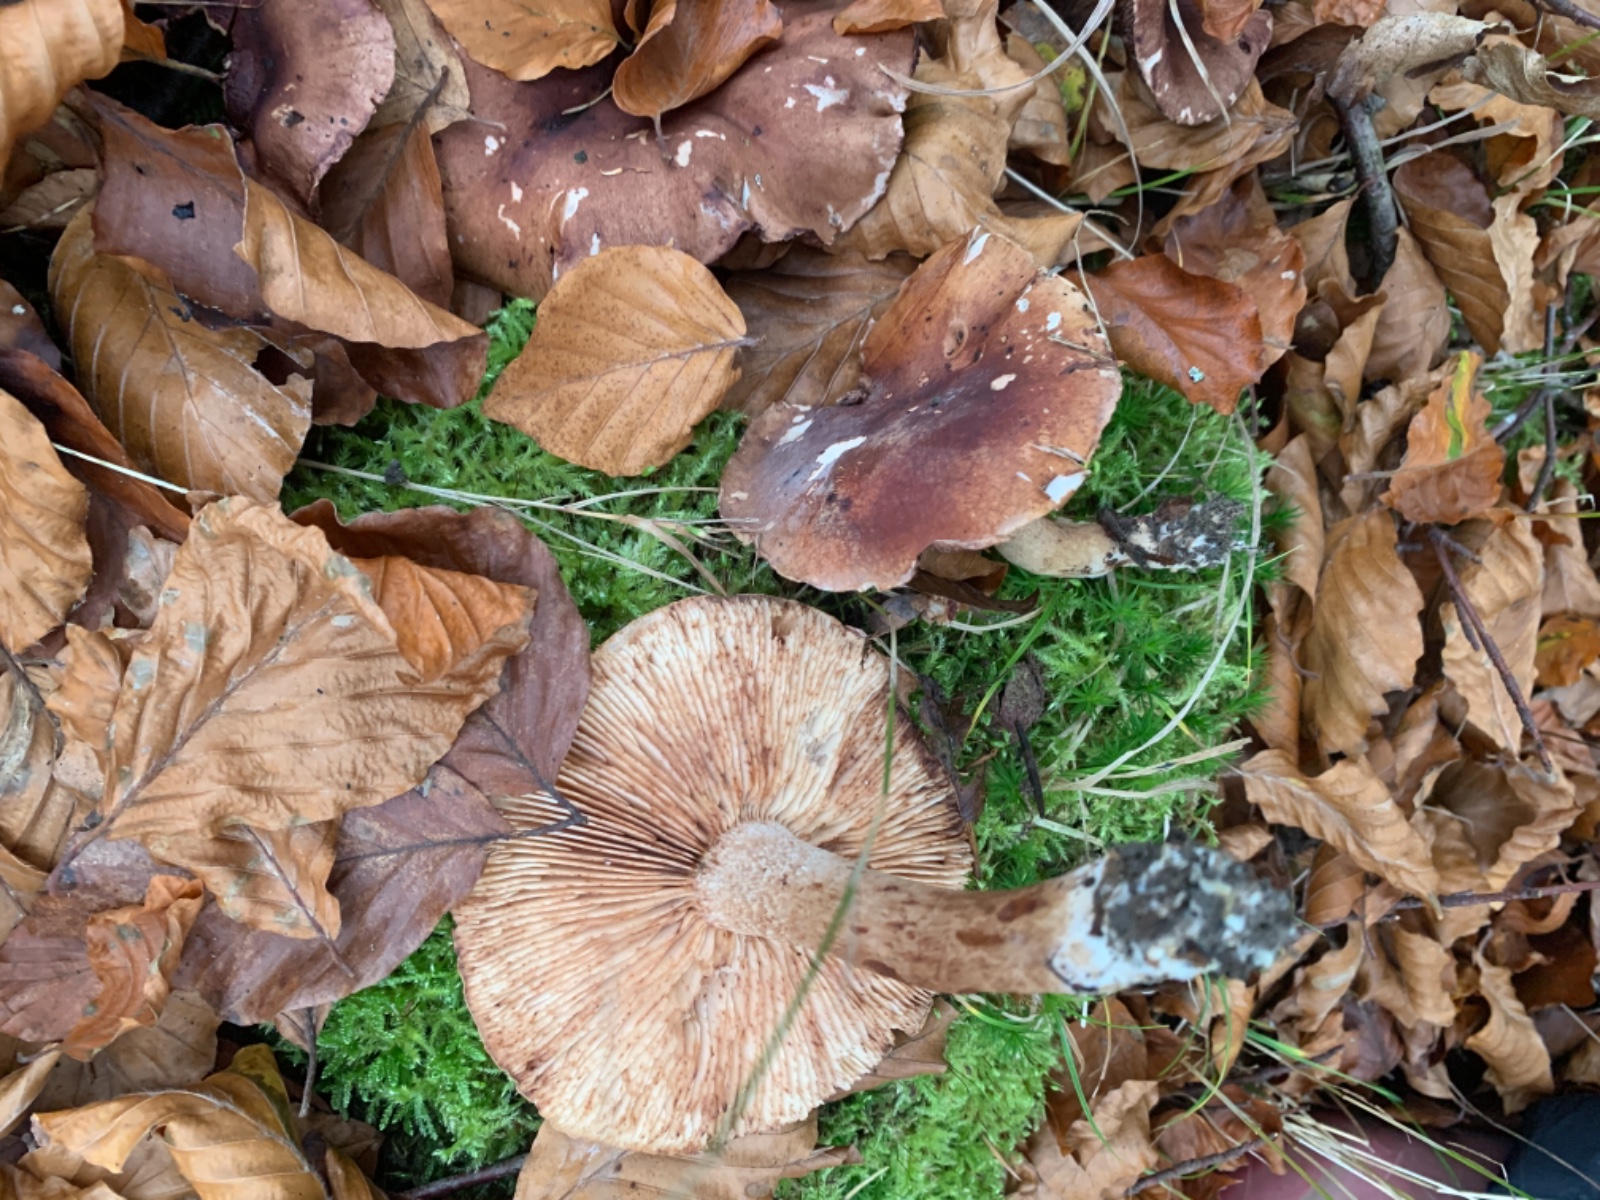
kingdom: Fungi
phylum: Basidiomycota
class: Agaricomycetes
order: Agaricales
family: Tricholomataceae
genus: Tricholoma
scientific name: Tricholoma ustale
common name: sveden ridderhat
